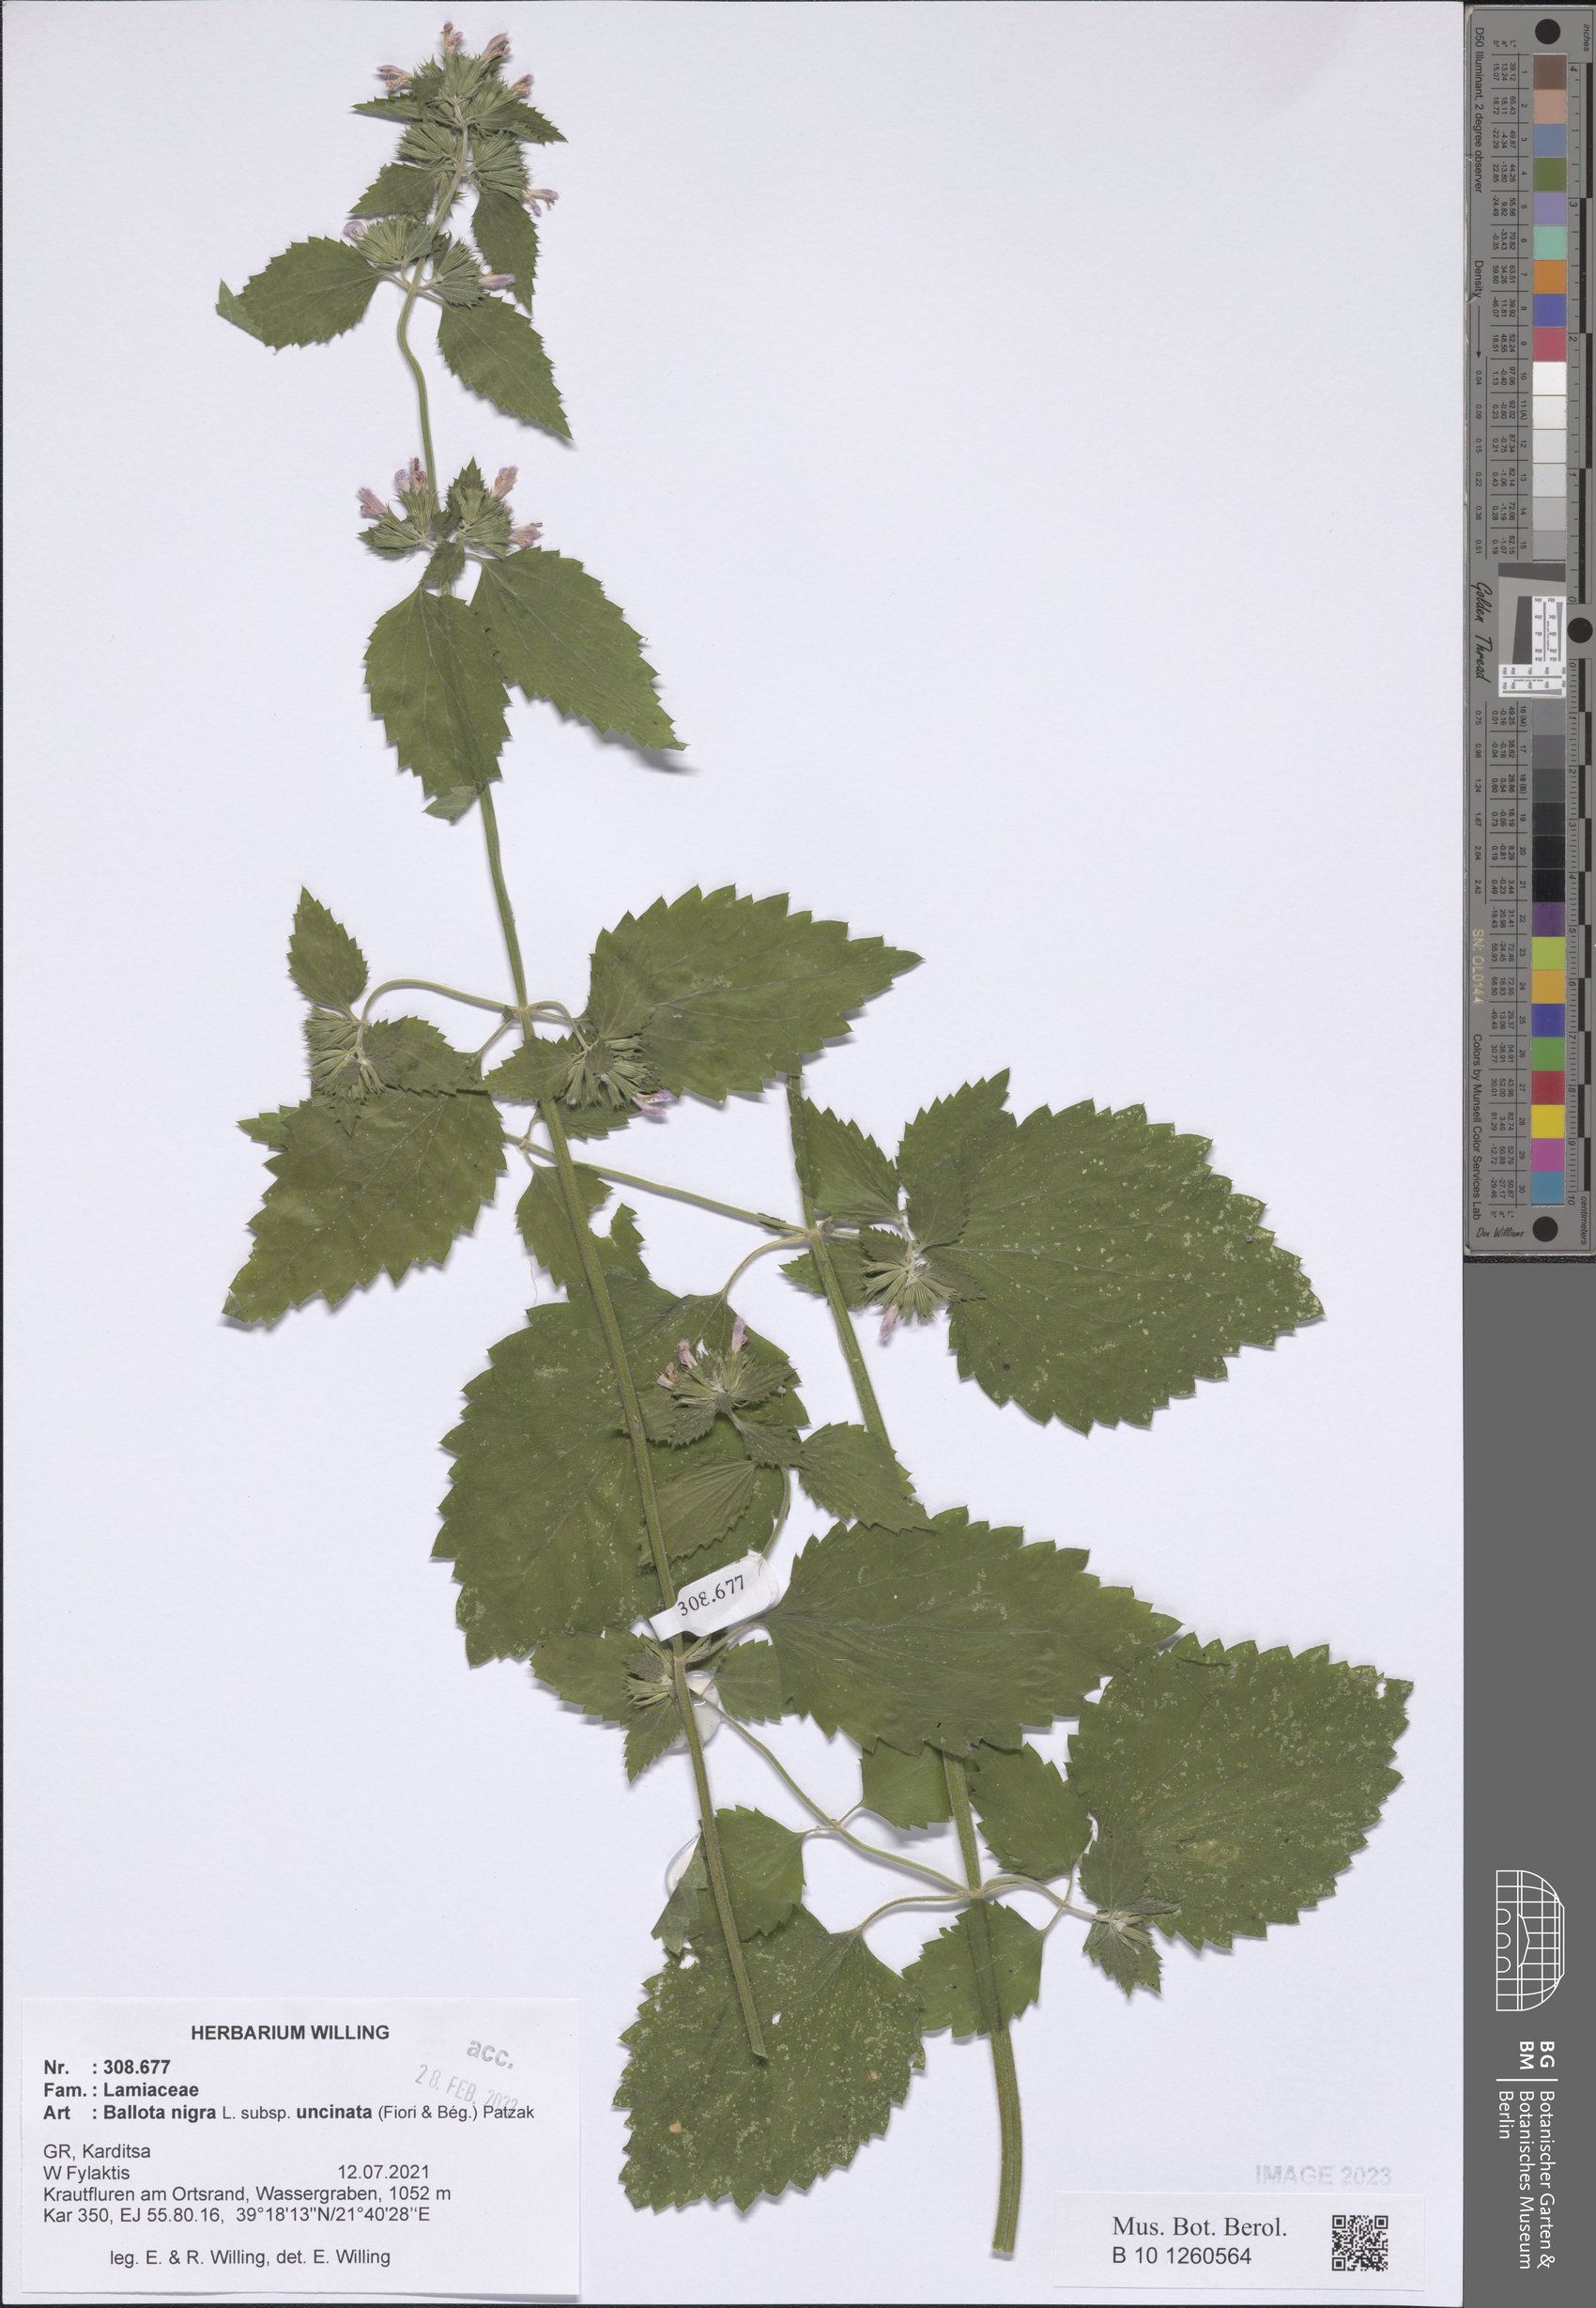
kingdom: Plantae
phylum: Tracheophyta
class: Magnoliopsida
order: Lamiales
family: Lamiaceae
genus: Ballota
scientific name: Ballota nigra
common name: Black horehound
